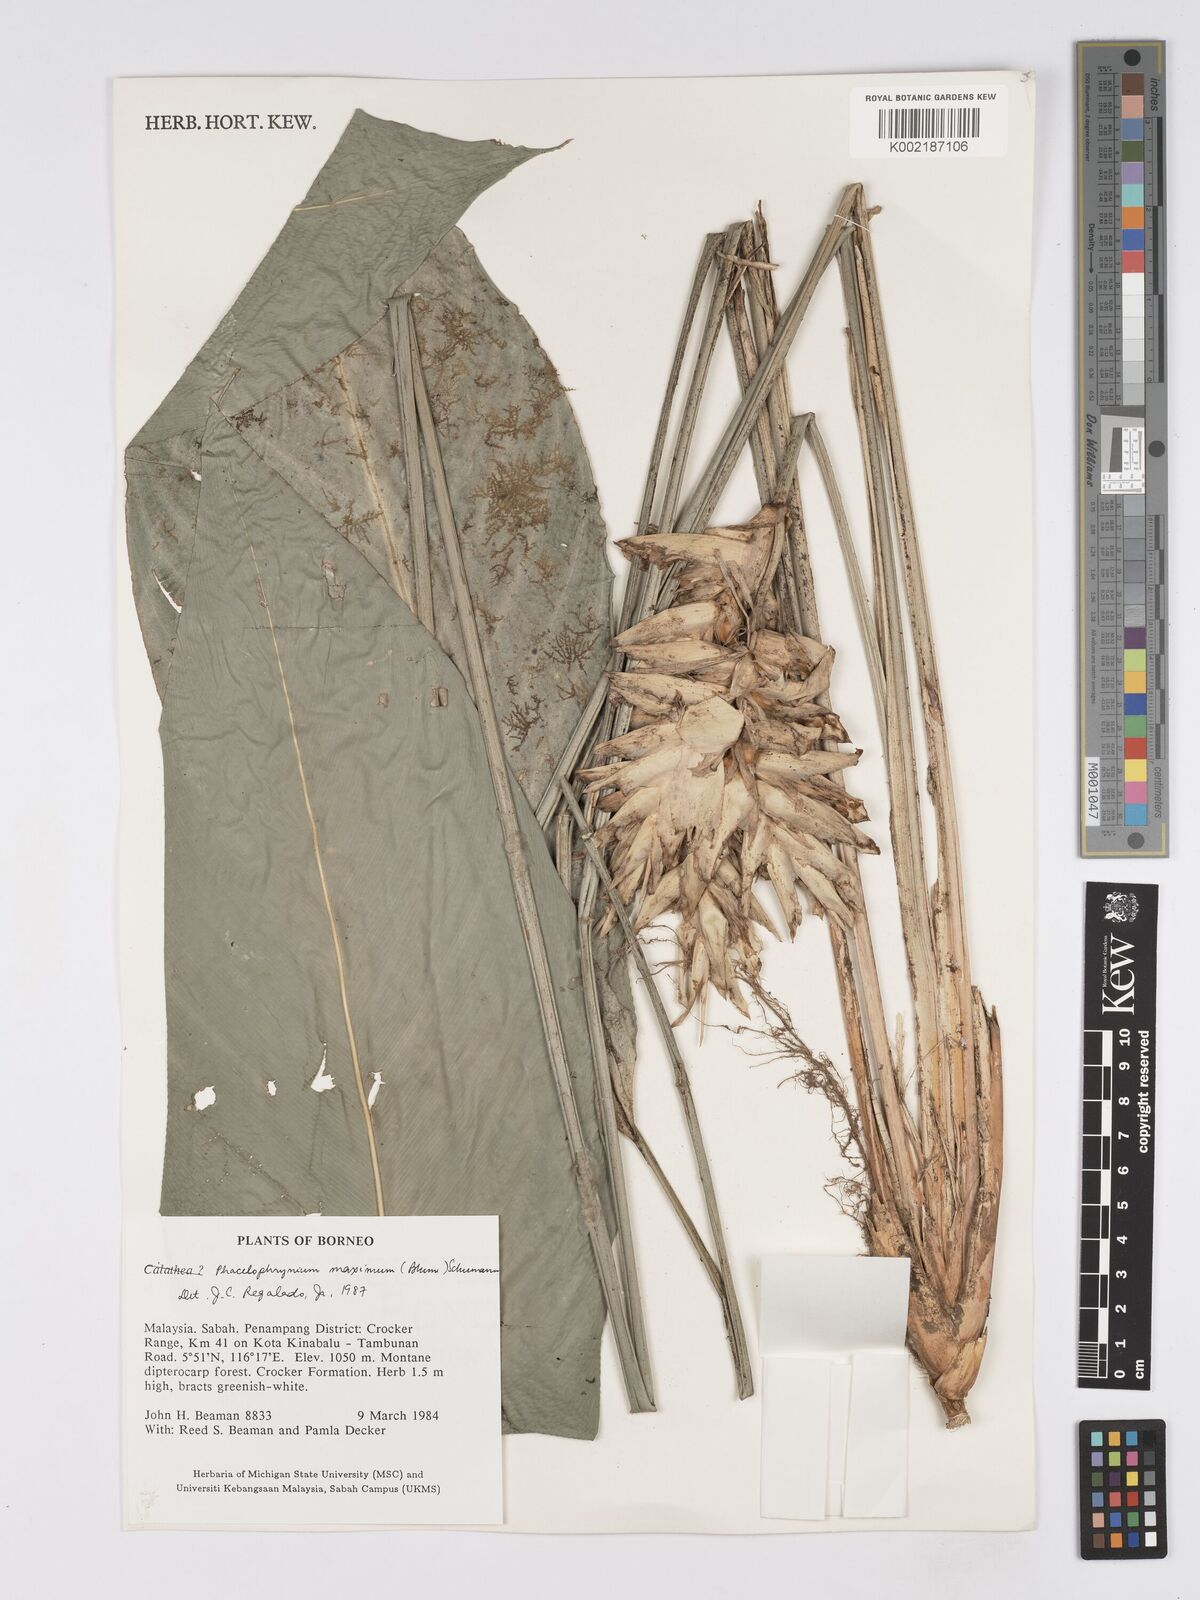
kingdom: Plantae
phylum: Tracheophyta
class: Liliopsida
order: Zingiberales
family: Marantaceae
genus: Phrynium
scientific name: Phrynium maximum
